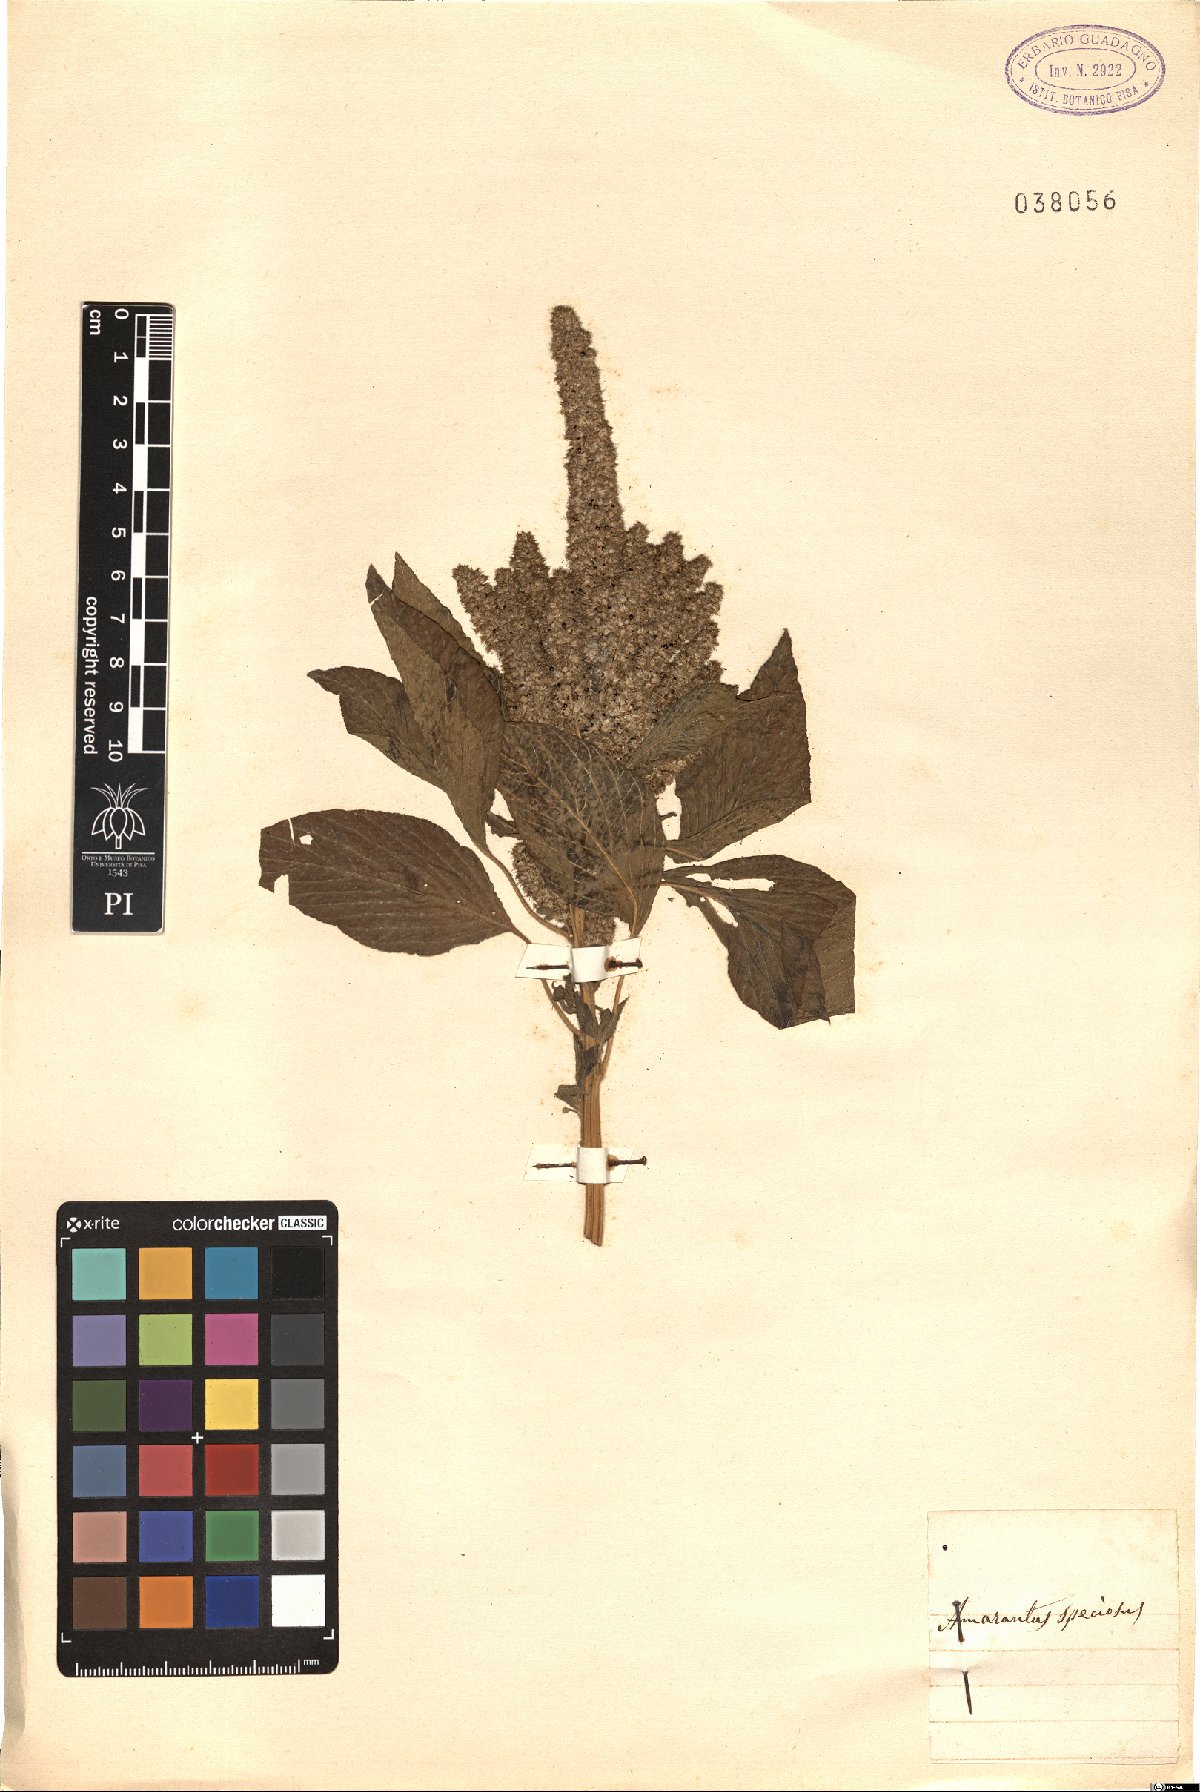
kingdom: Plantae
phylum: Tracheophyta
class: Magnoliopsida
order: Caryophyllales
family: Amaranthaceae
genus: Amaranthus
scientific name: Amaranthus cruentus
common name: Purple amaranth
